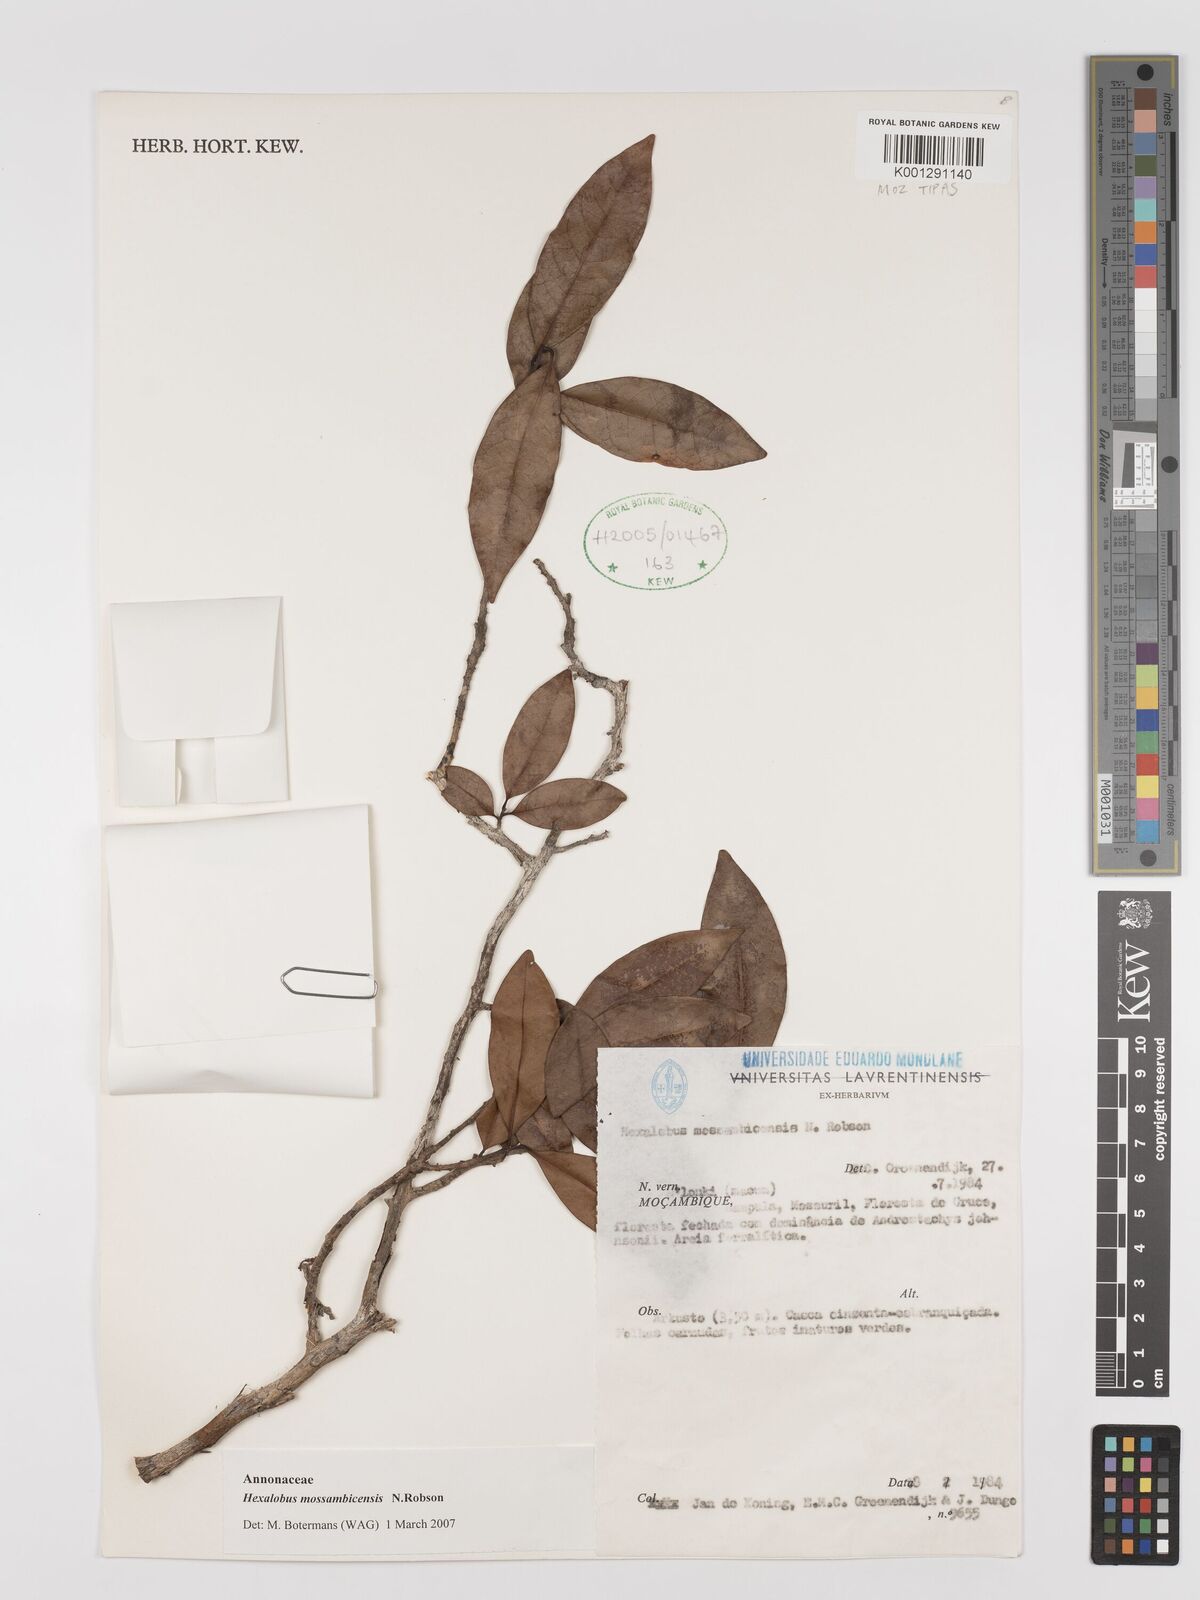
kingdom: Plantae
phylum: Tracheophyta
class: Magnoliopsida
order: Magnoliales
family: Annonaceae
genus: Hexalobus
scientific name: Hexalobus mossambicensis
